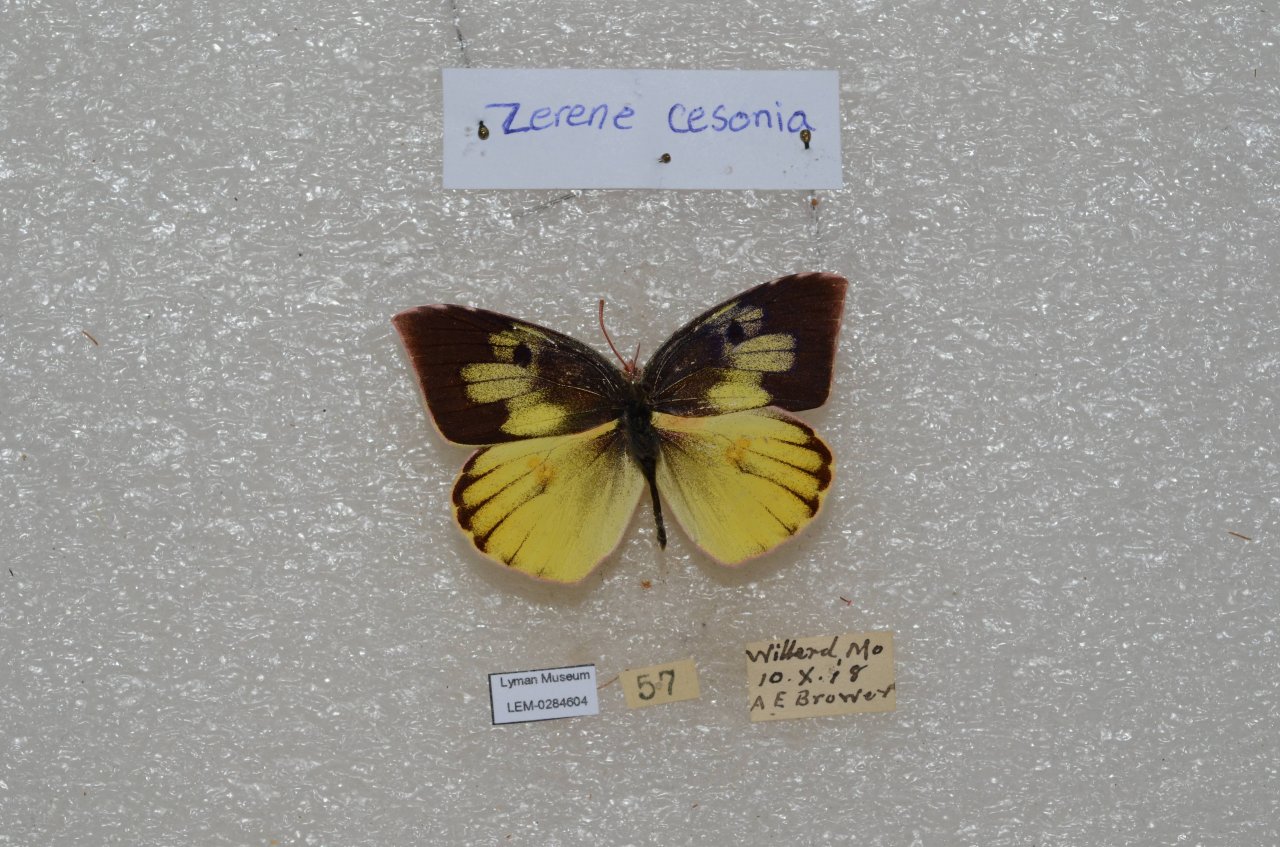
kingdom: Animalia
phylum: Arthropoda
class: Insecta
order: Lepidoptera
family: Pieridae
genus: Zerene
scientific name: Zerene cesonia
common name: Southern Dogface
